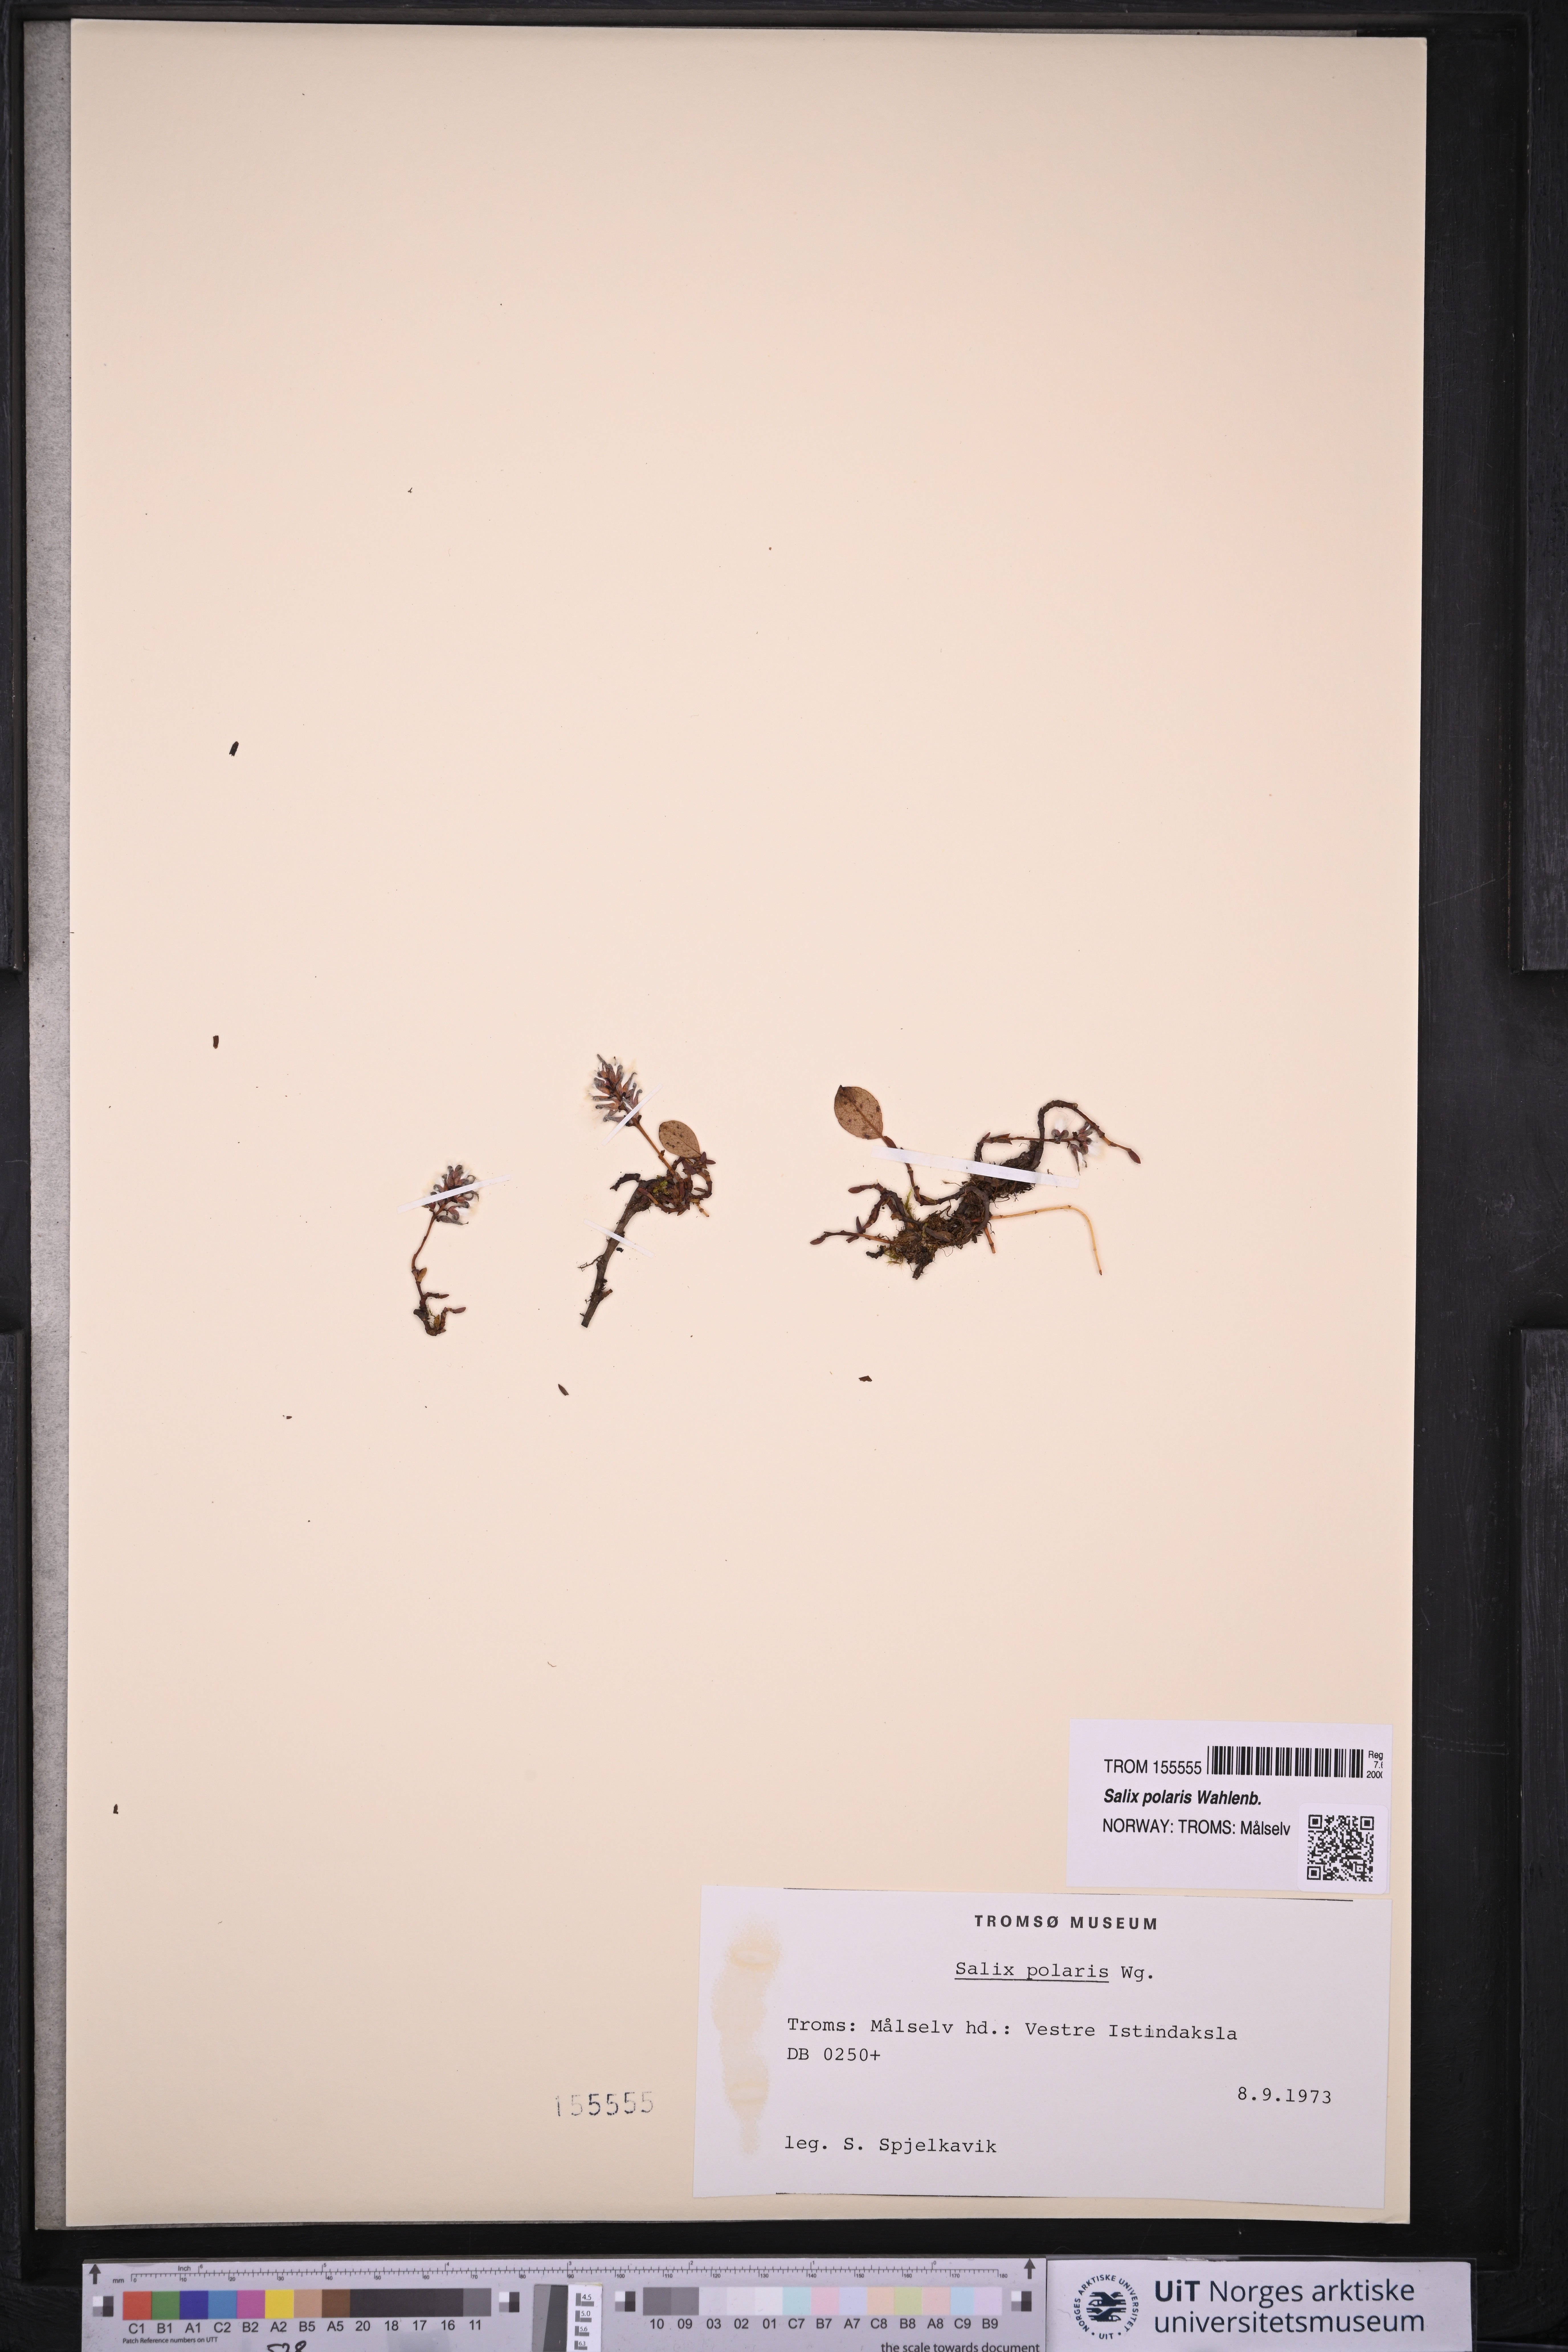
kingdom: Plantae
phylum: Tracheophyta
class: Magnoliopsida
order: Malpighiales
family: Salicaceae
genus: Salix
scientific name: Salix polaris
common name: Polar willow
